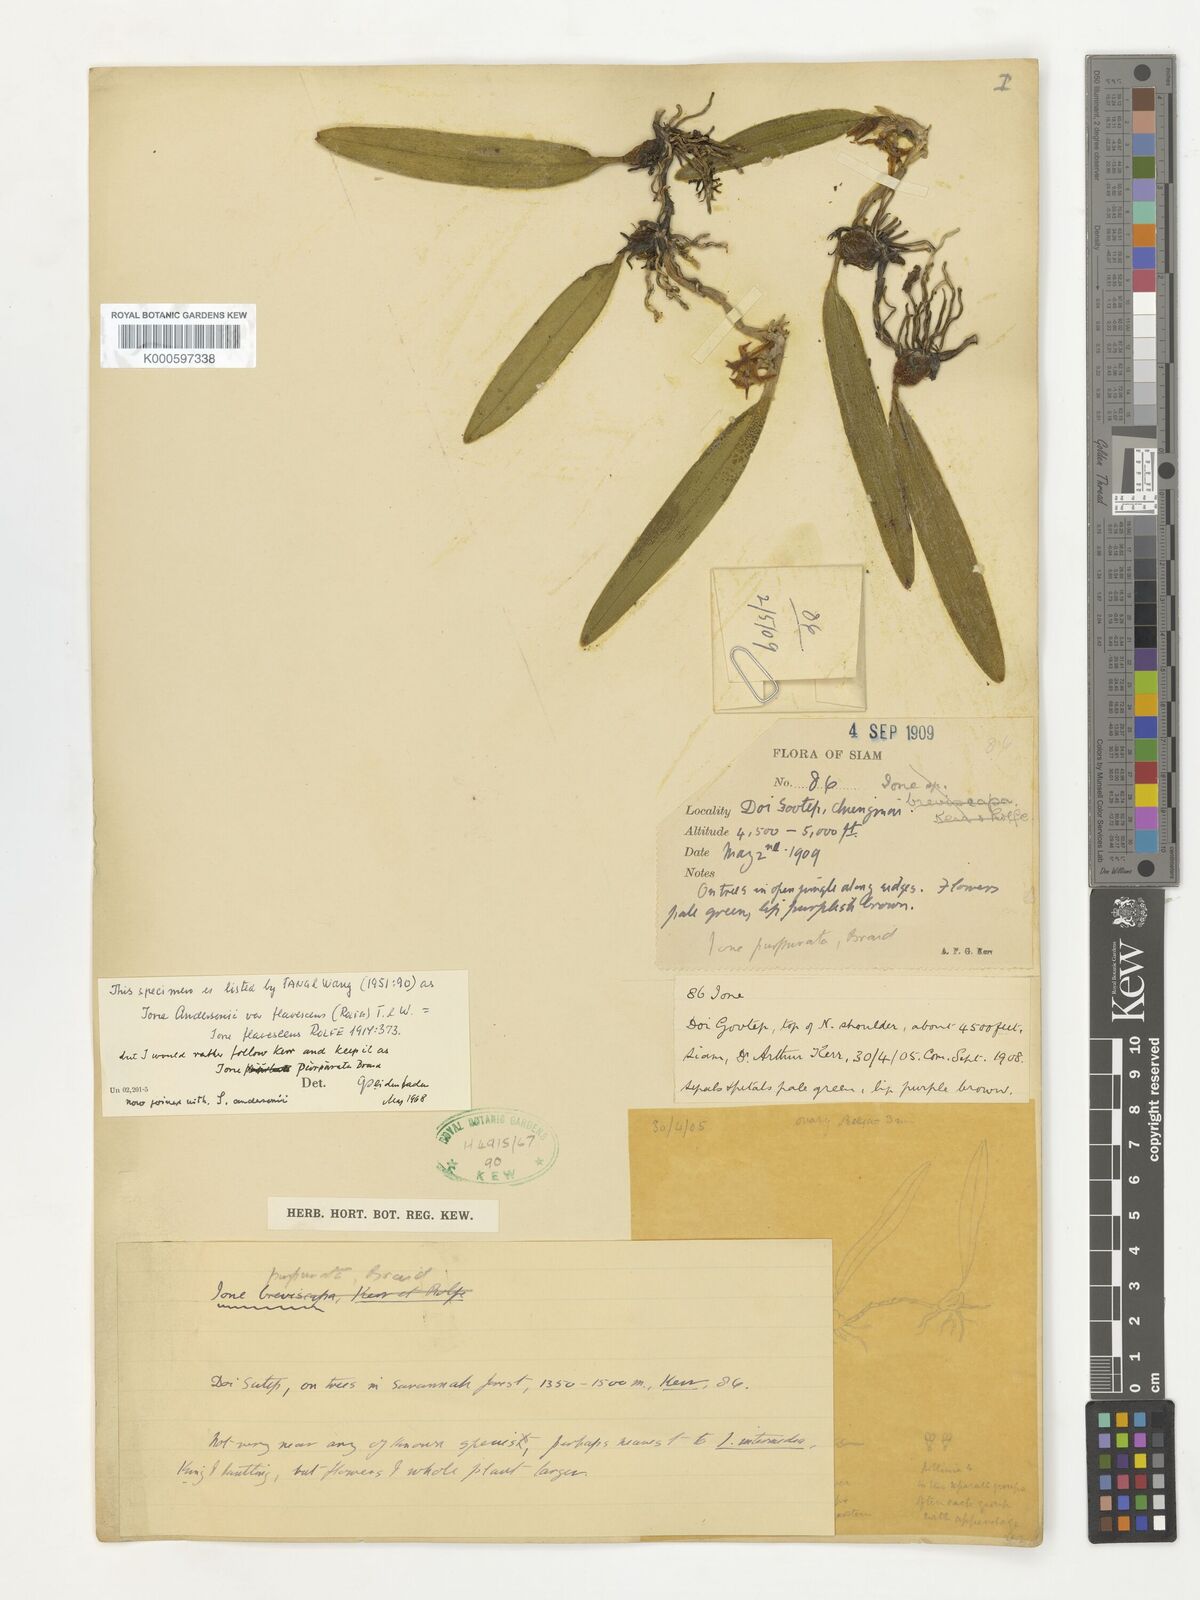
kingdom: Plantae
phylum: Tracheophyta
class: Liliopsida
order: Asparagales
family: Orchidaceae
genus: Bulbophyllum
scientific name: Bulbophyllum bifurcatoflorens
